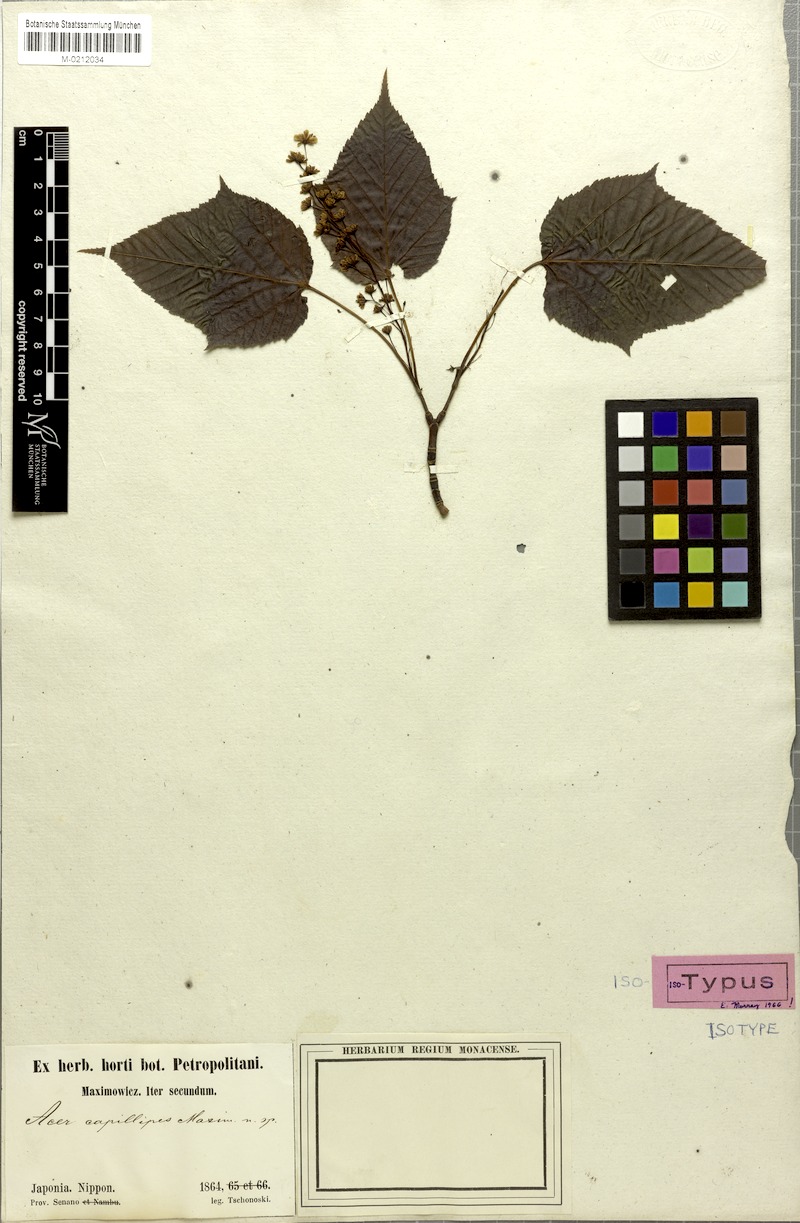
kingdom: Plantae
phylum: Tracheophyta
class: Magnoliopsida
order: Sapindales
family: Sapindaceae
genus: Acer
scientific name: Acer capillipes
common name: Kyushu maple
